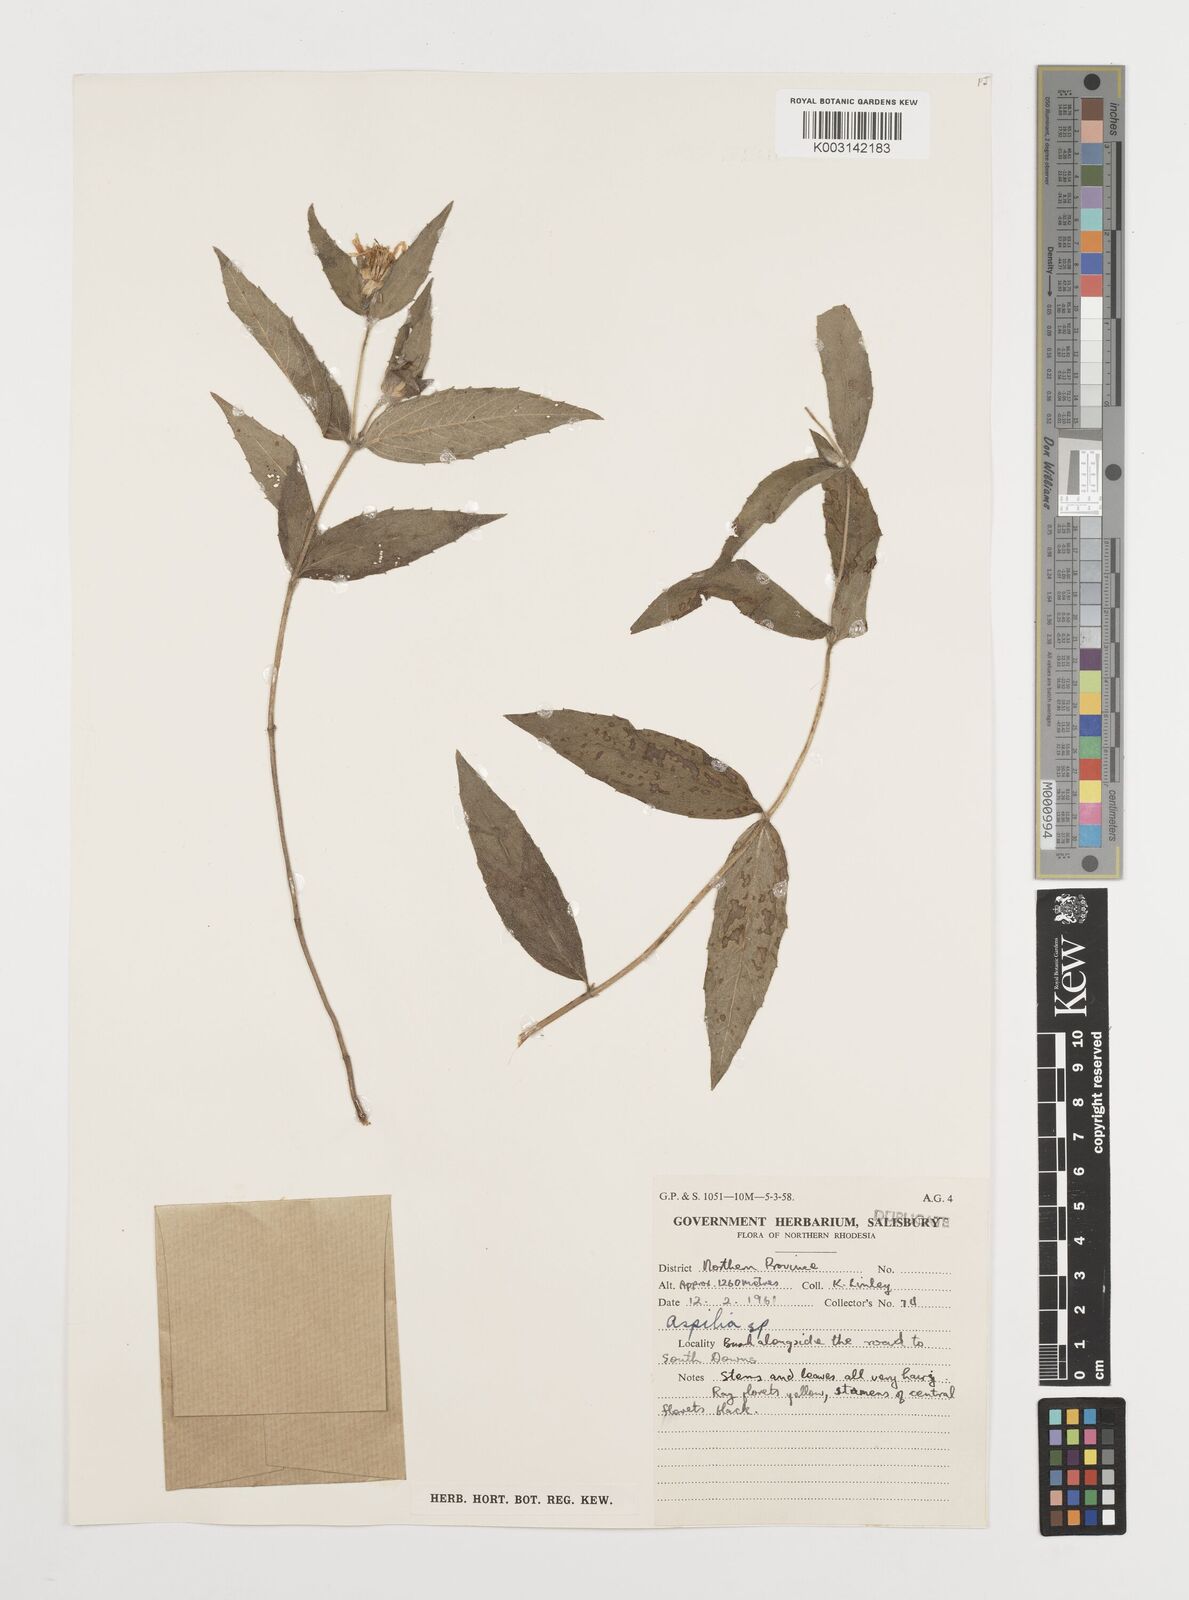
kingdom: Plantae
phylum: Tracheophyta
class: Magnoliopsida
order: Asterales
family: Asteraceae
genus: Aspilia
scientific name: Aspilia mossambicensis
